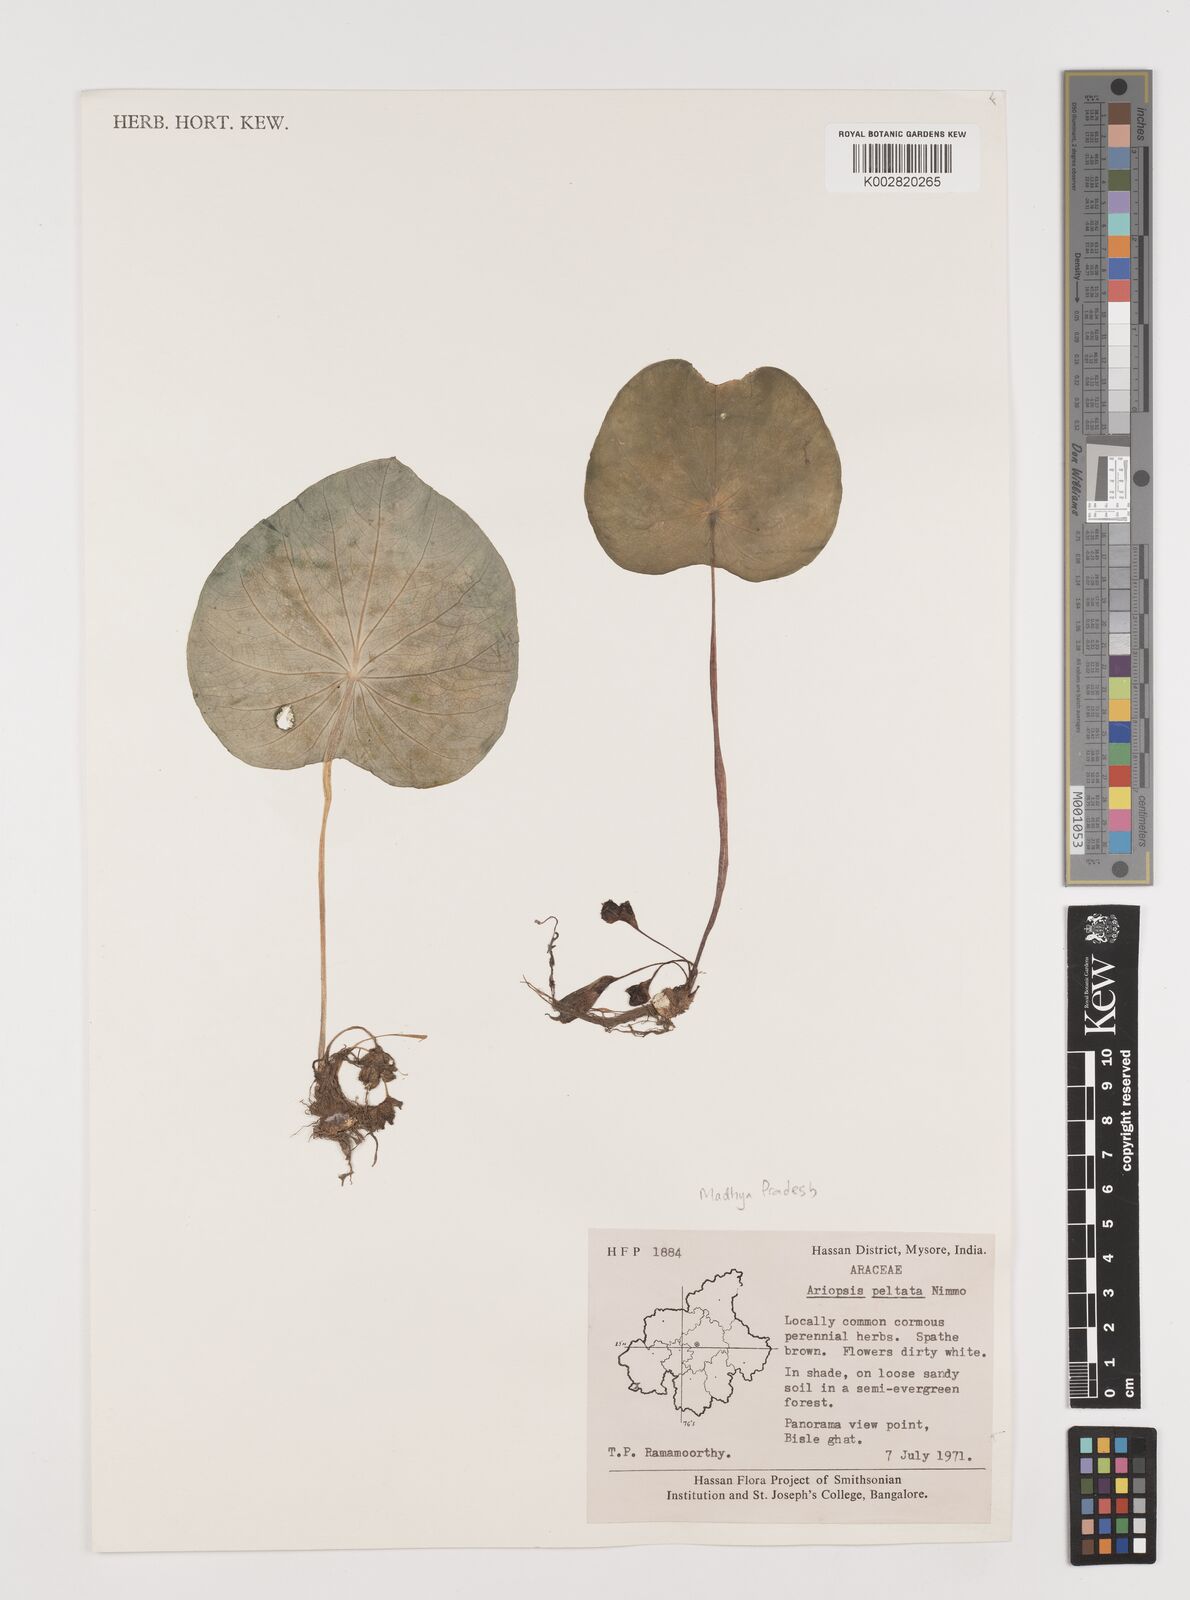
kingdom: Plantae
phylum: Tracheophyta
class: Liliopsida
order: Alismatales
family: Araceae
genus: Ariopsis
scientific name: Ariopsis peltata
